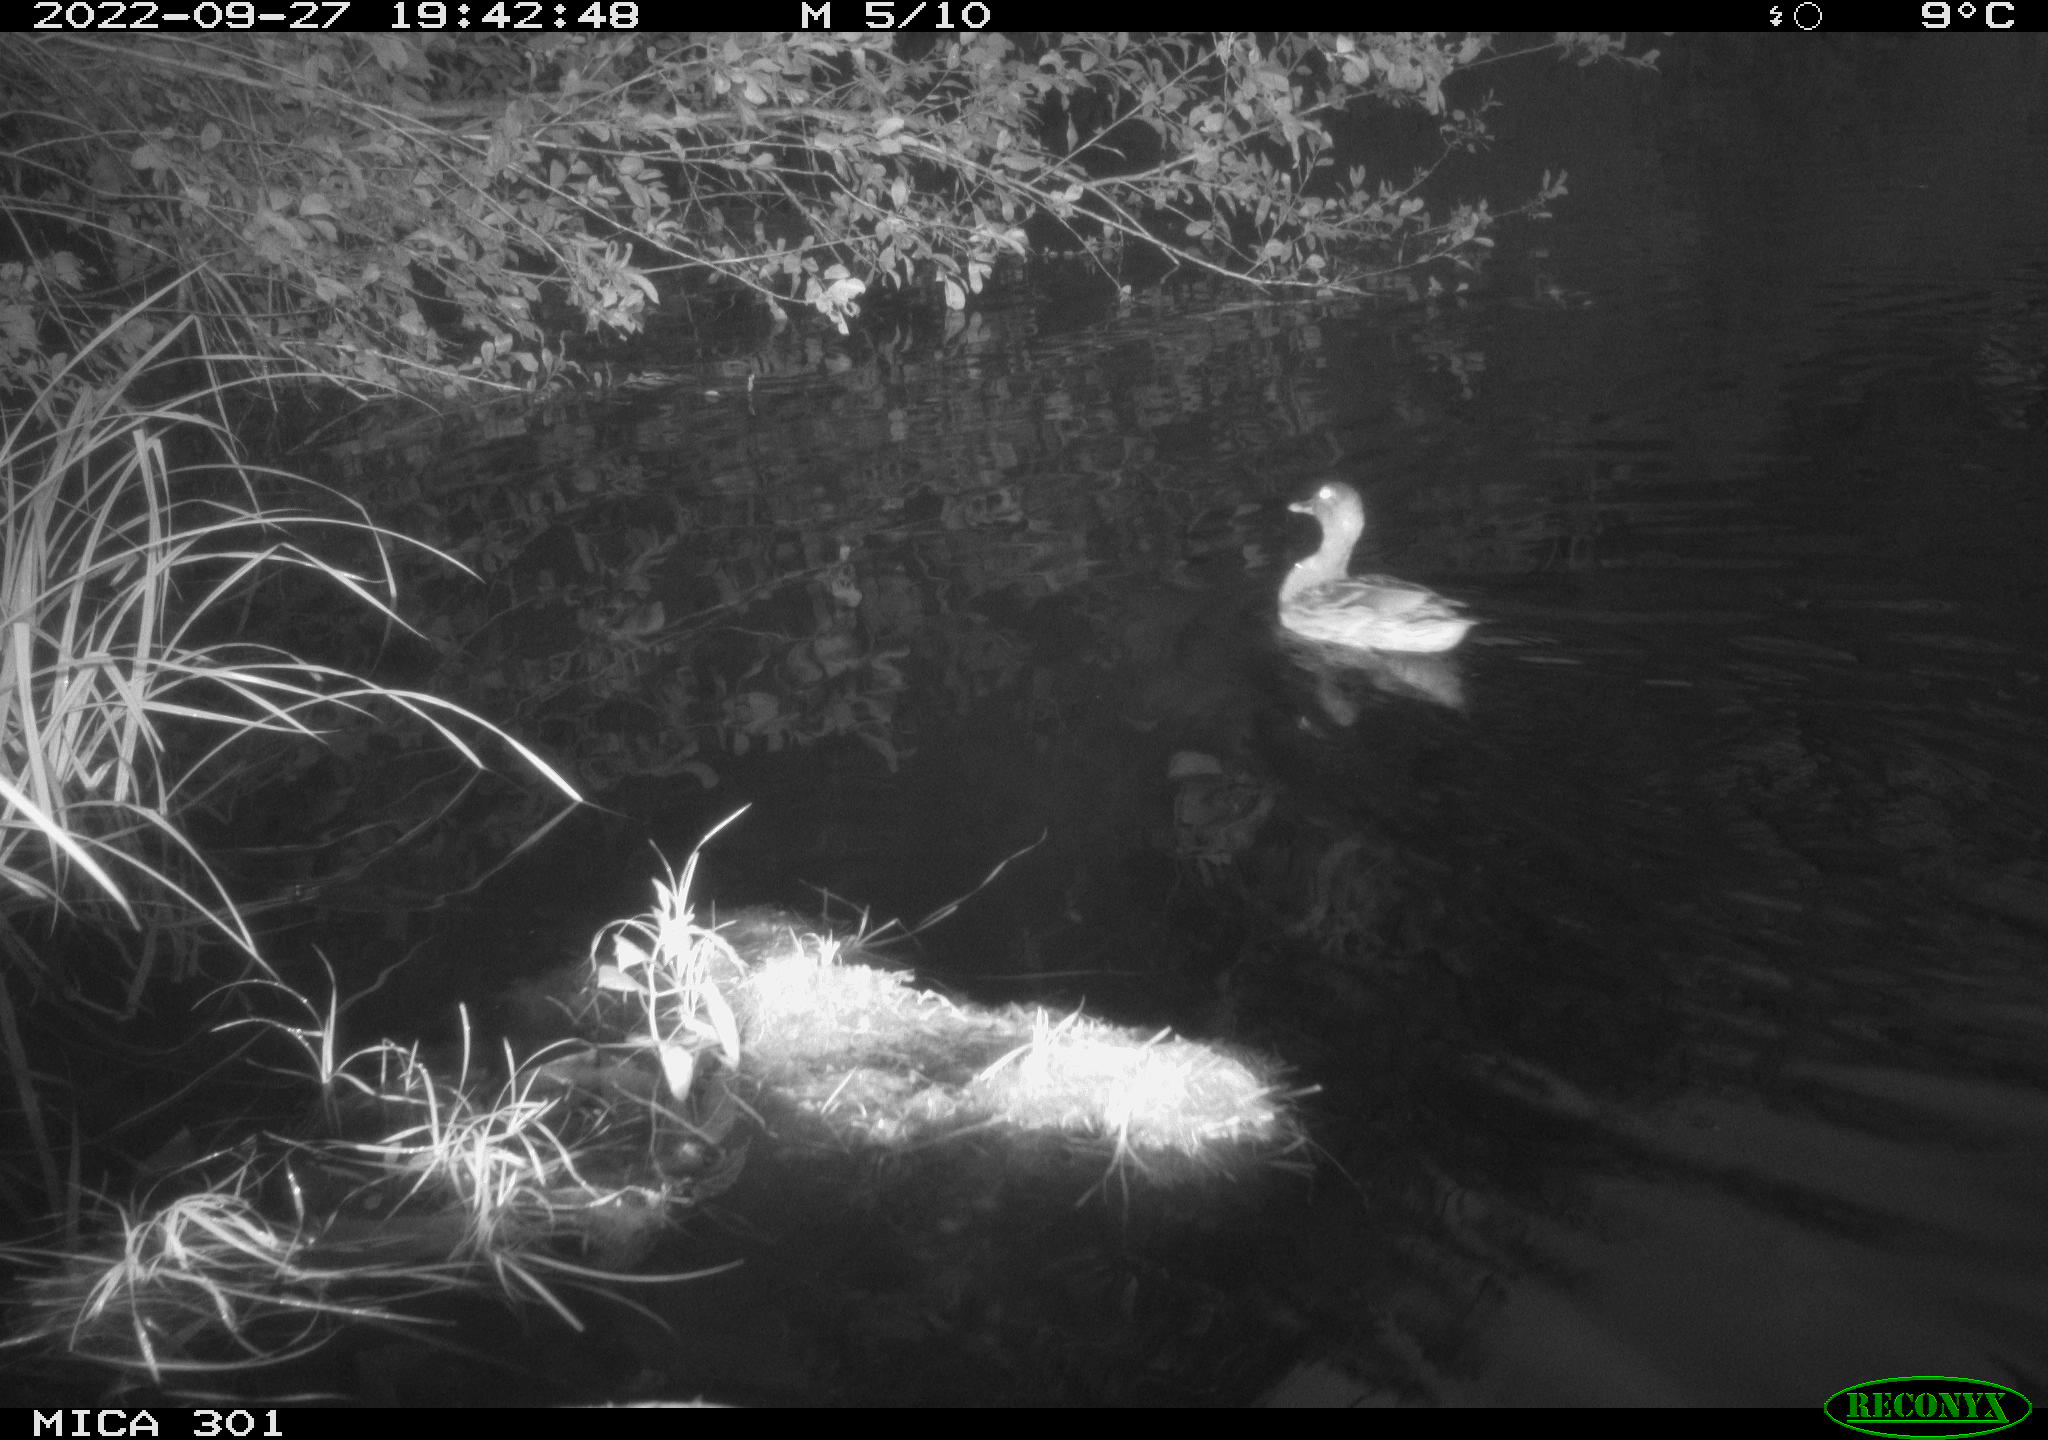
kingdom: Animalia
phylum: Chordata
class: Aves
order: Anseriformes
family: Anatidae
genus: Anas
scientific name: Anas
